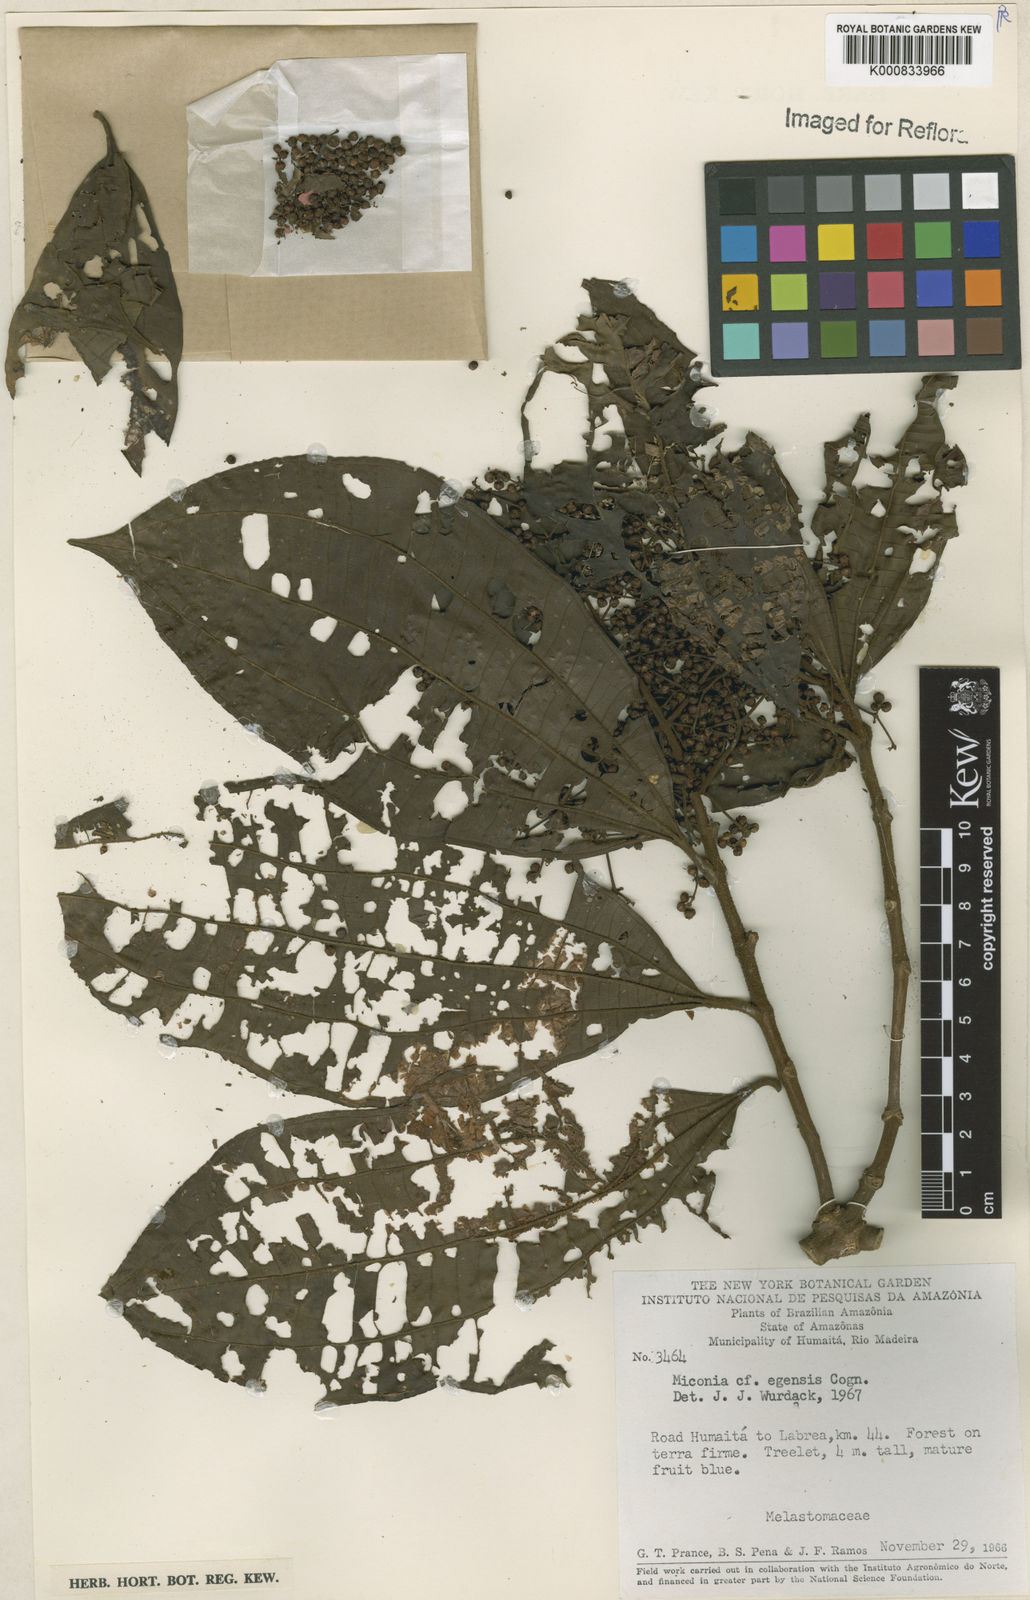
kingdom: Plantae
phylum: Tracheophyta
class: Magnoliopsida
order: Myrtales
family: Melastomataceae
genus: Miconia
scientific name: Miconia egensis
